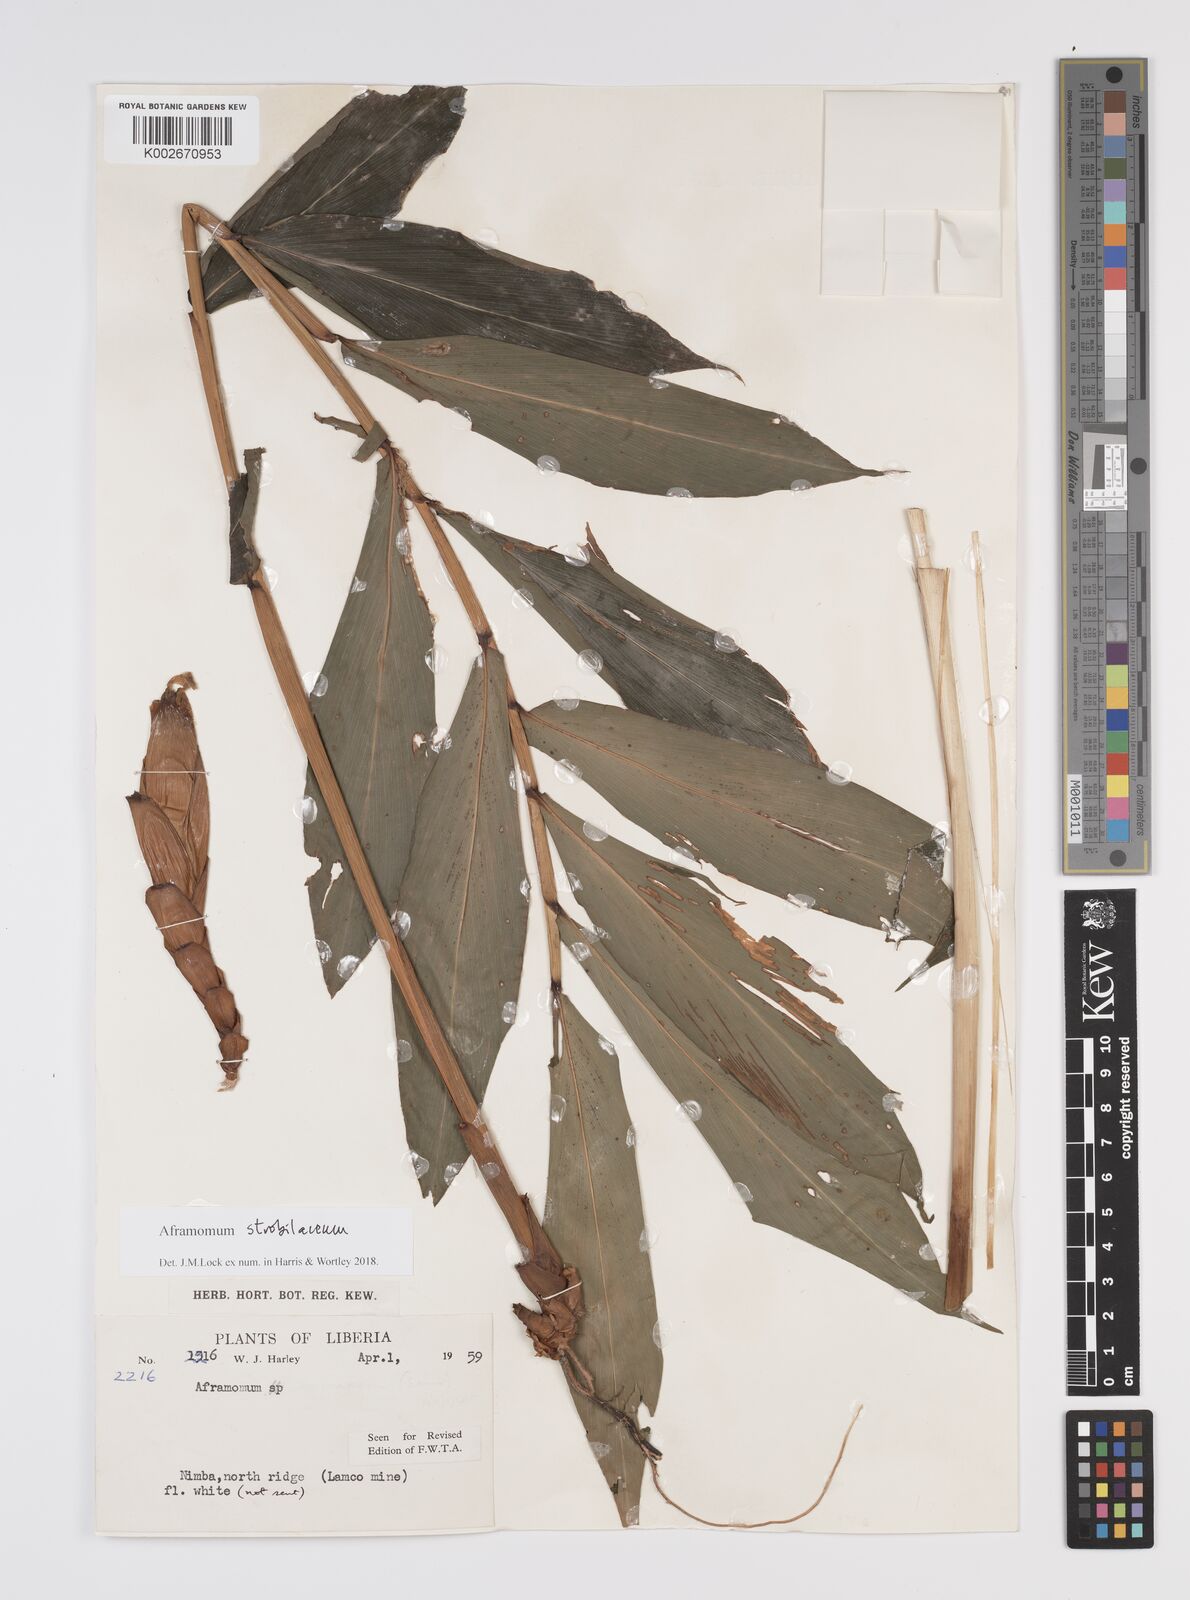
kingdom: Plantae
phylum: Tracheophyta
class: Liliopsida
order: Zingiberales
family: Zingiberaceae
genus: Aframomum
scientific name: Aframomum strobilaceum
